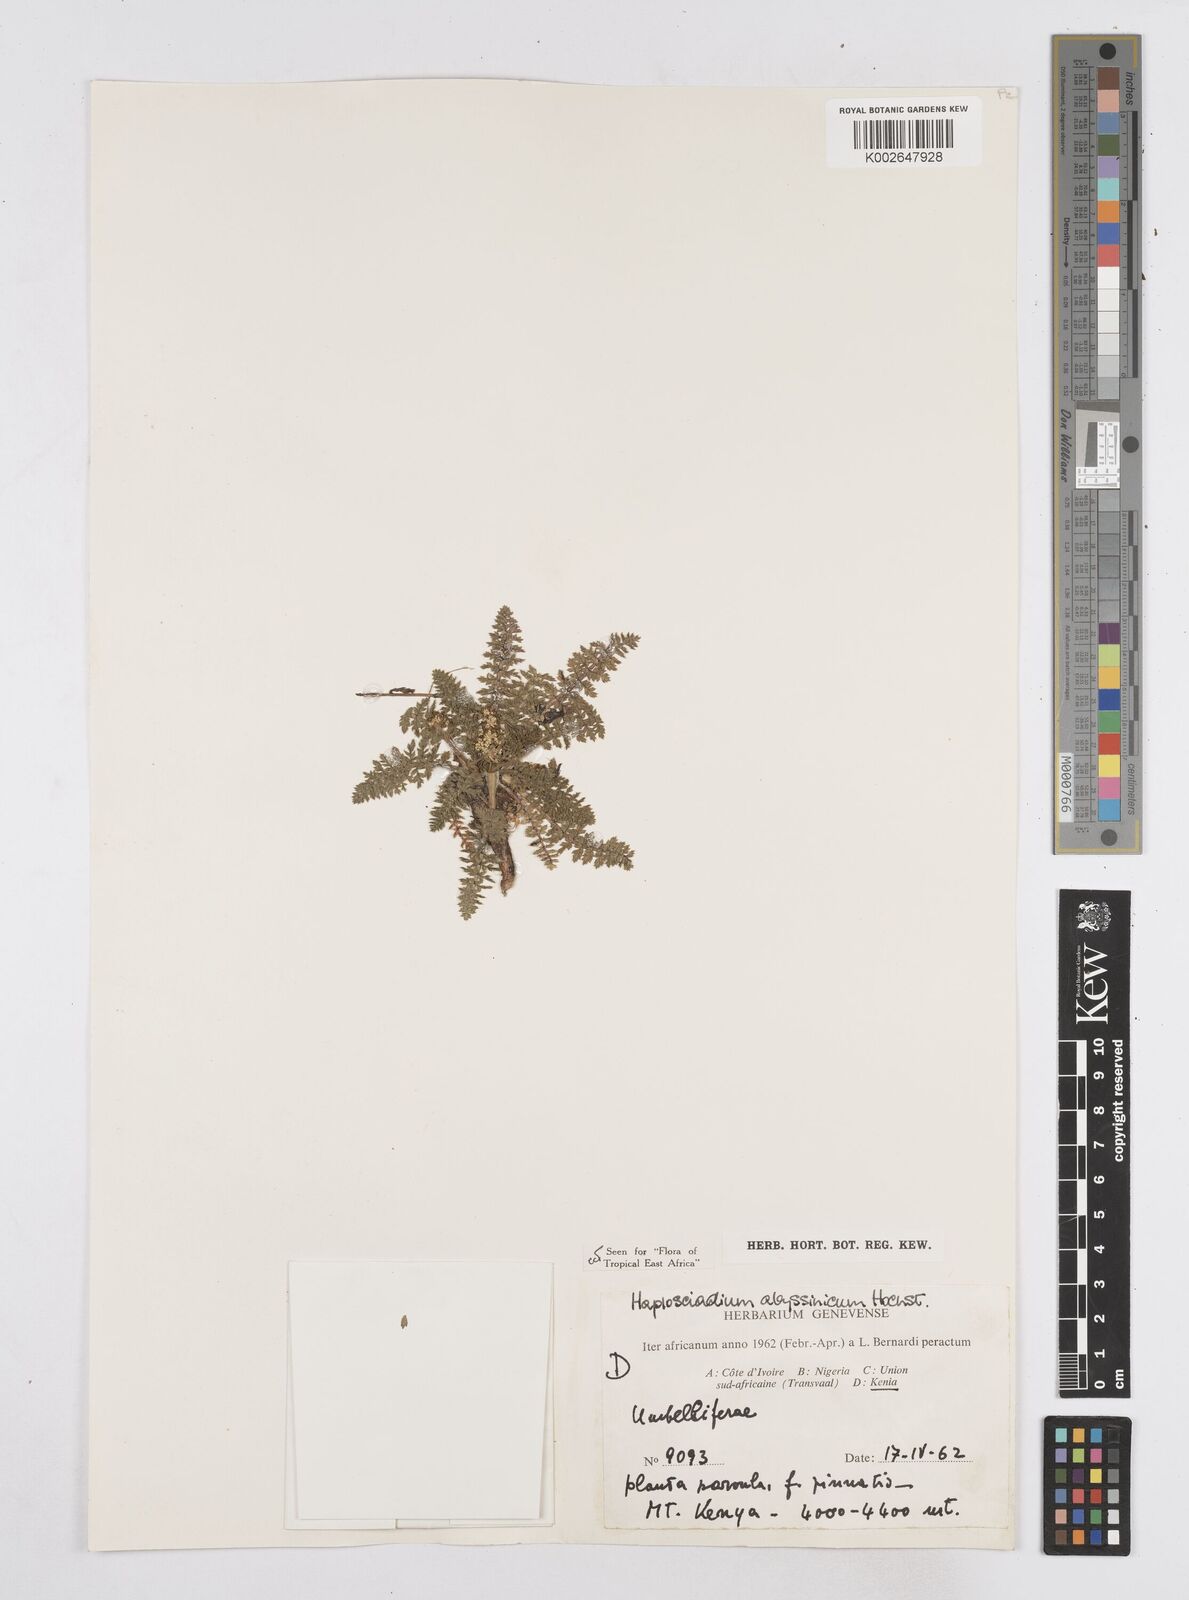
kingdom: Plantae
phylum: Tracheophyta
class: Magnoliopsida
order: Apiales
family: Apiaceae
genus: Haplosciadium
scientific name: Haplosciadium abyssinicum
